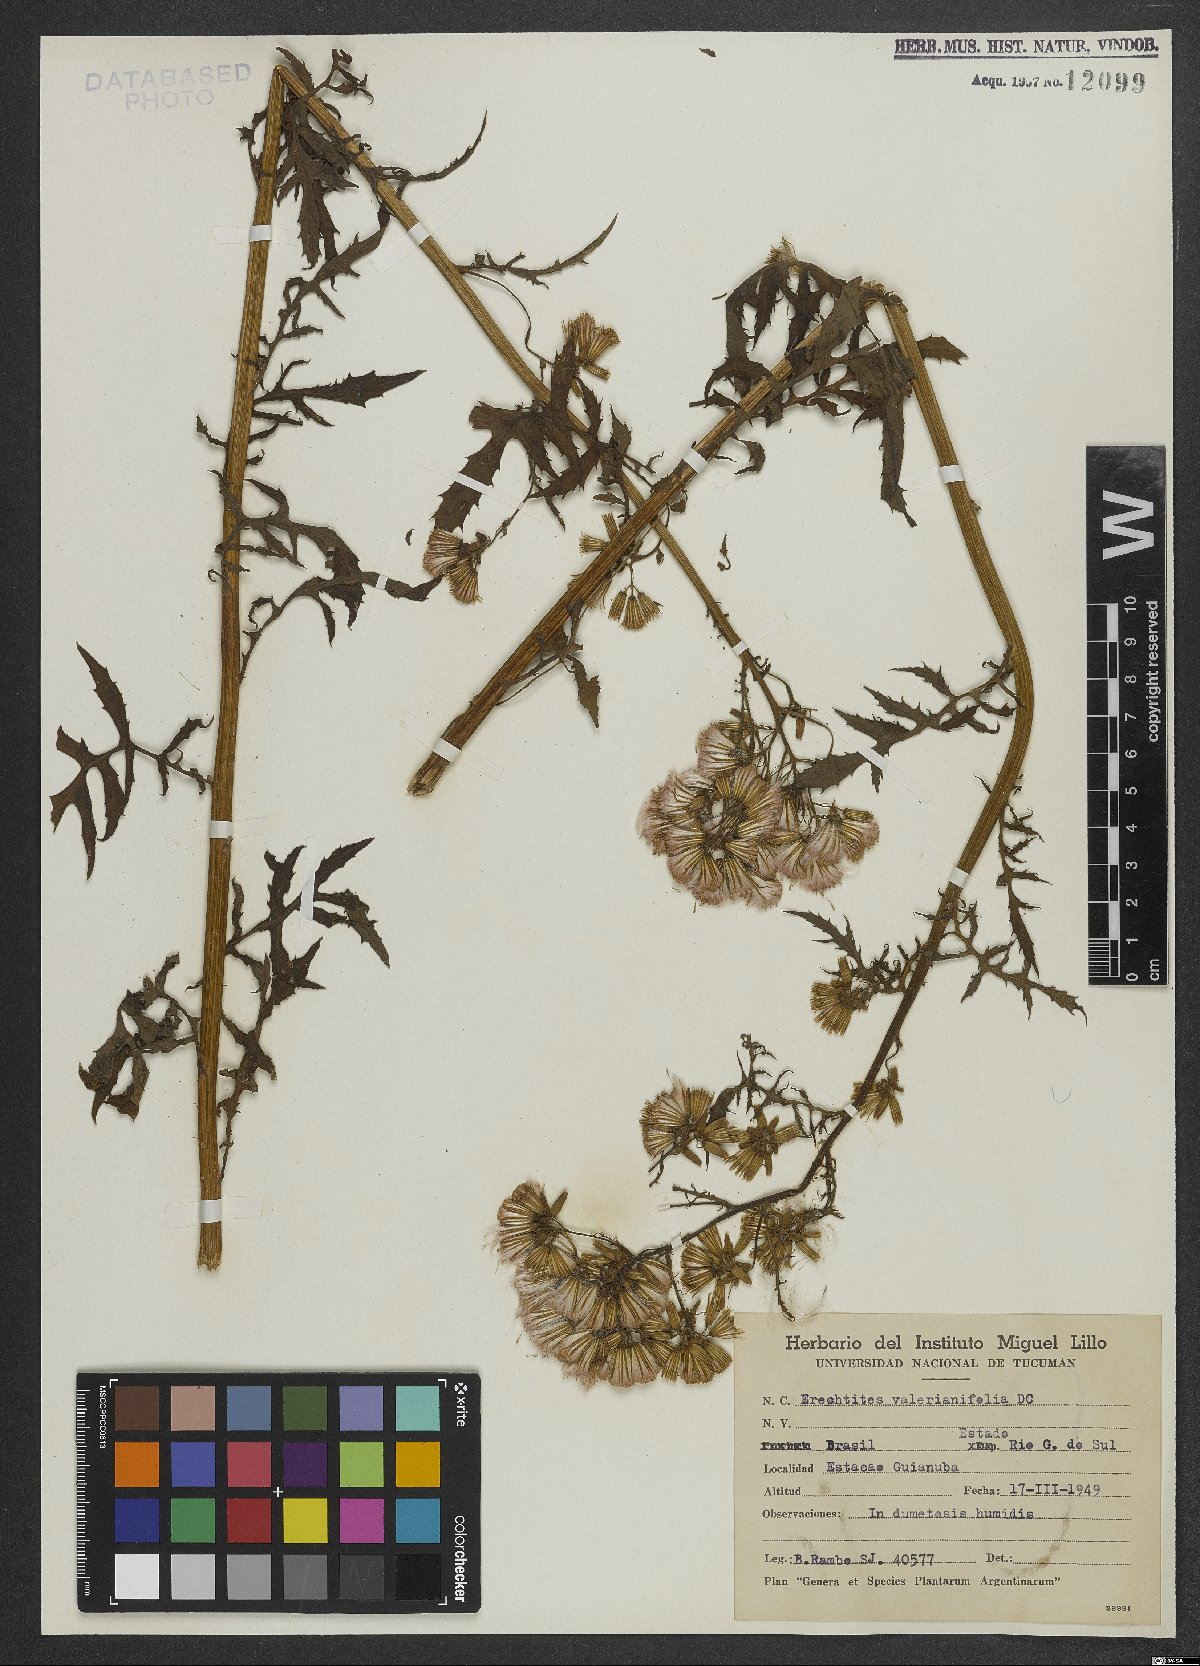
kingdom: Plantae
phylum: Tracheophyta
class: Magnoliopsida
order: Asterales
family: Asteraceae
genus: Erechtites
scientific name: Erechtites valerianifolius
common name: Tropical burnweed
